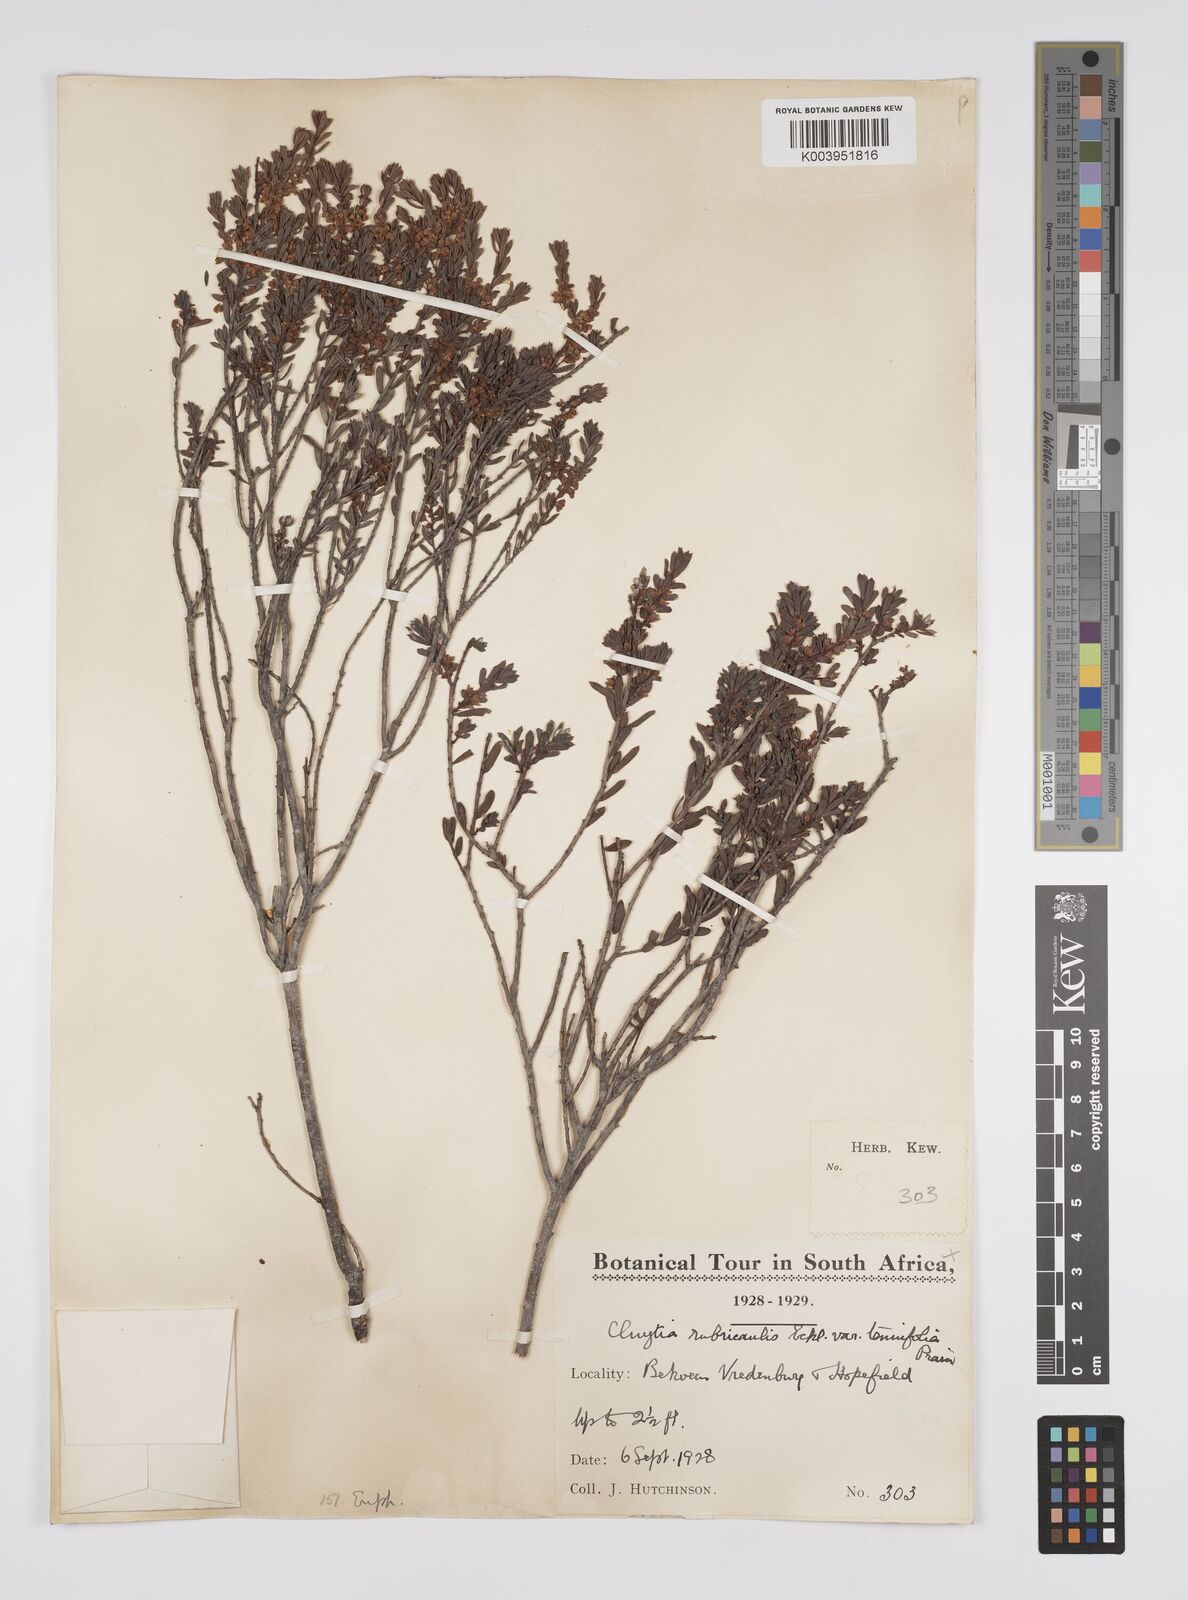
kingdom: Plantae
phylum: Tracheophyta
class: Magnoliopsida
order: Malpighiales
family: Peraceae
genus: Clutia
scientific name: Clutia rubricaulis
